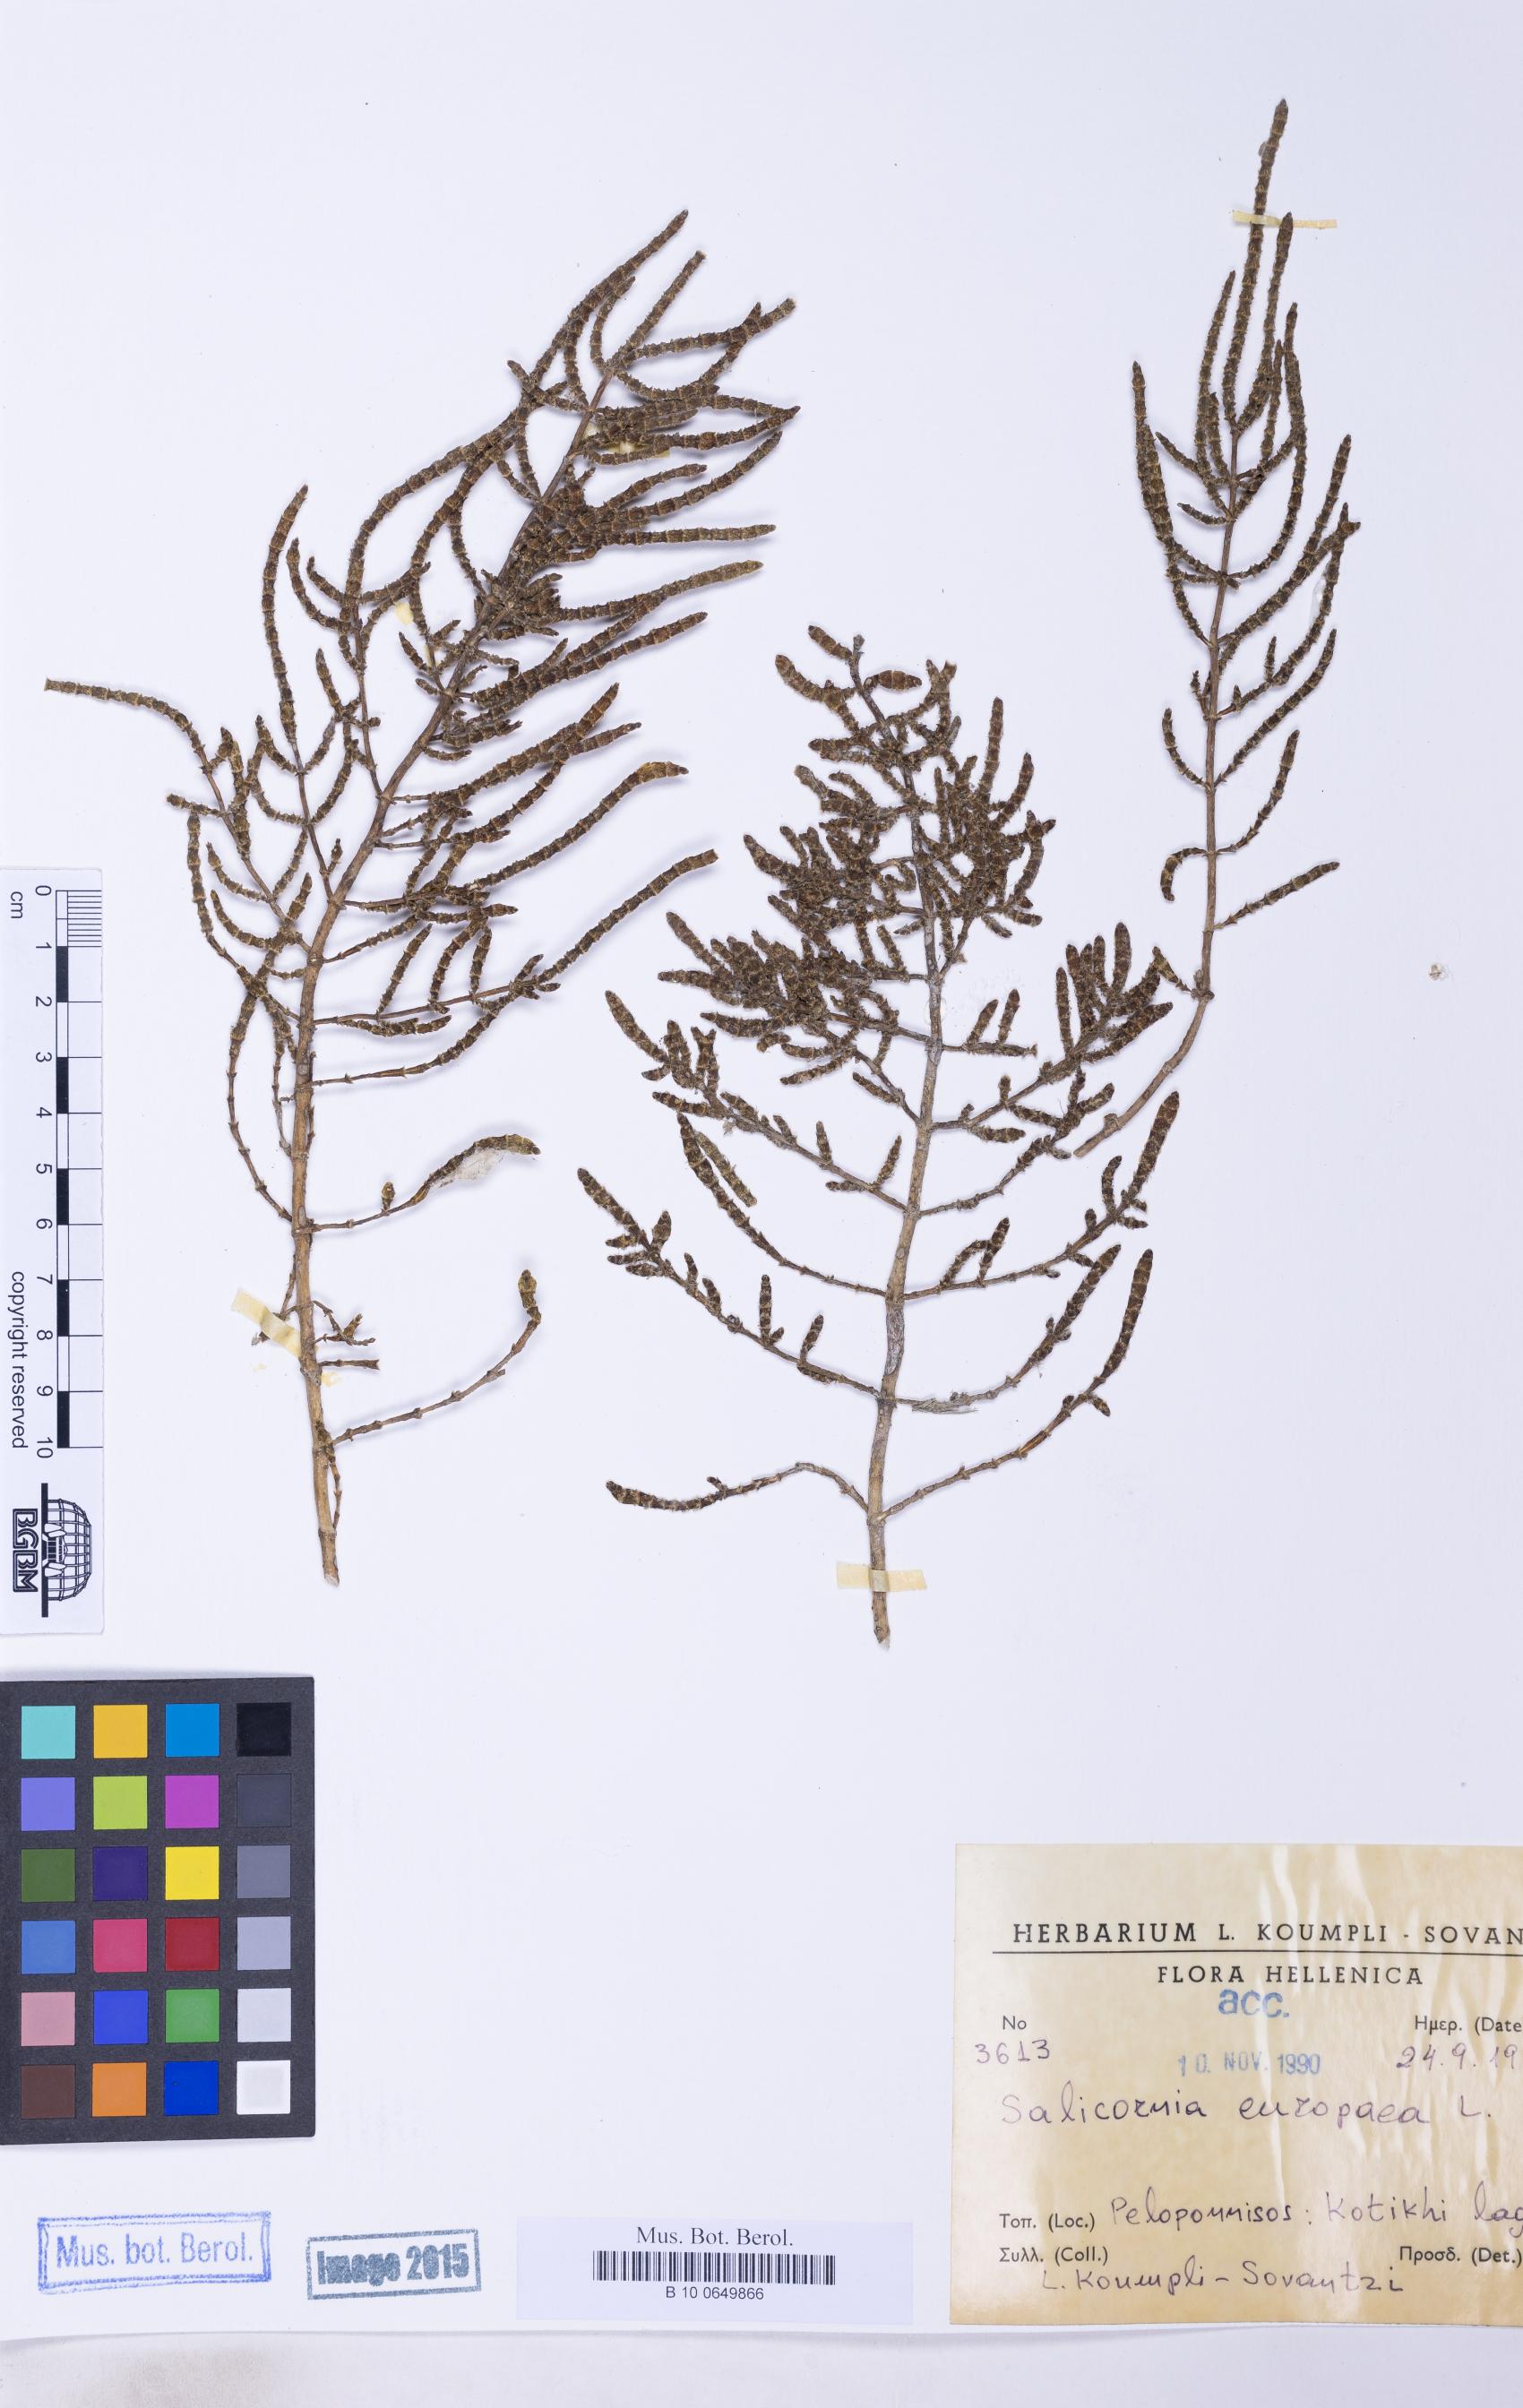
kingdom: Plantae
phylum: Tracheophyta
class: Magnoliopsida
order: Caryophyllales
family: Amaranthaceae
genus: Salicornia
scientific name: Salicornia perennans
